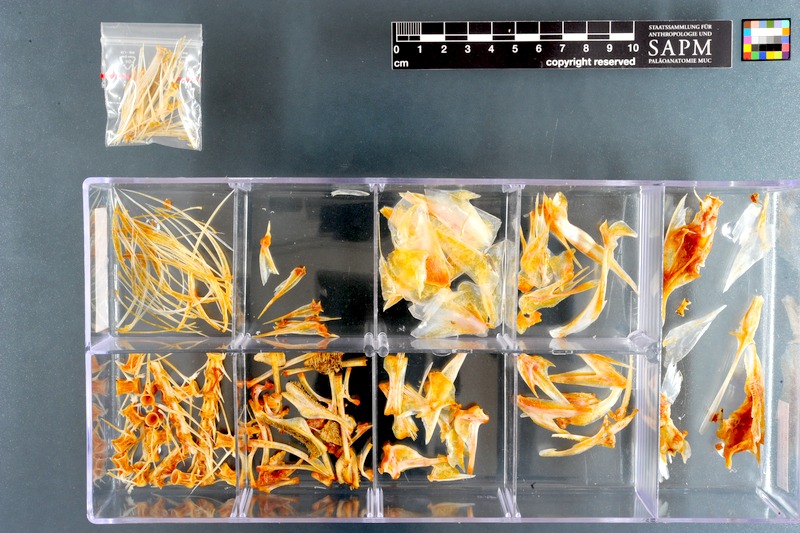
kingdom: Animalia
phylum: Chordata
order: Perciformes
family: Scombridae
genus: Scomber
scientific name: Scomber japonicus
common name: Chub mackerel
